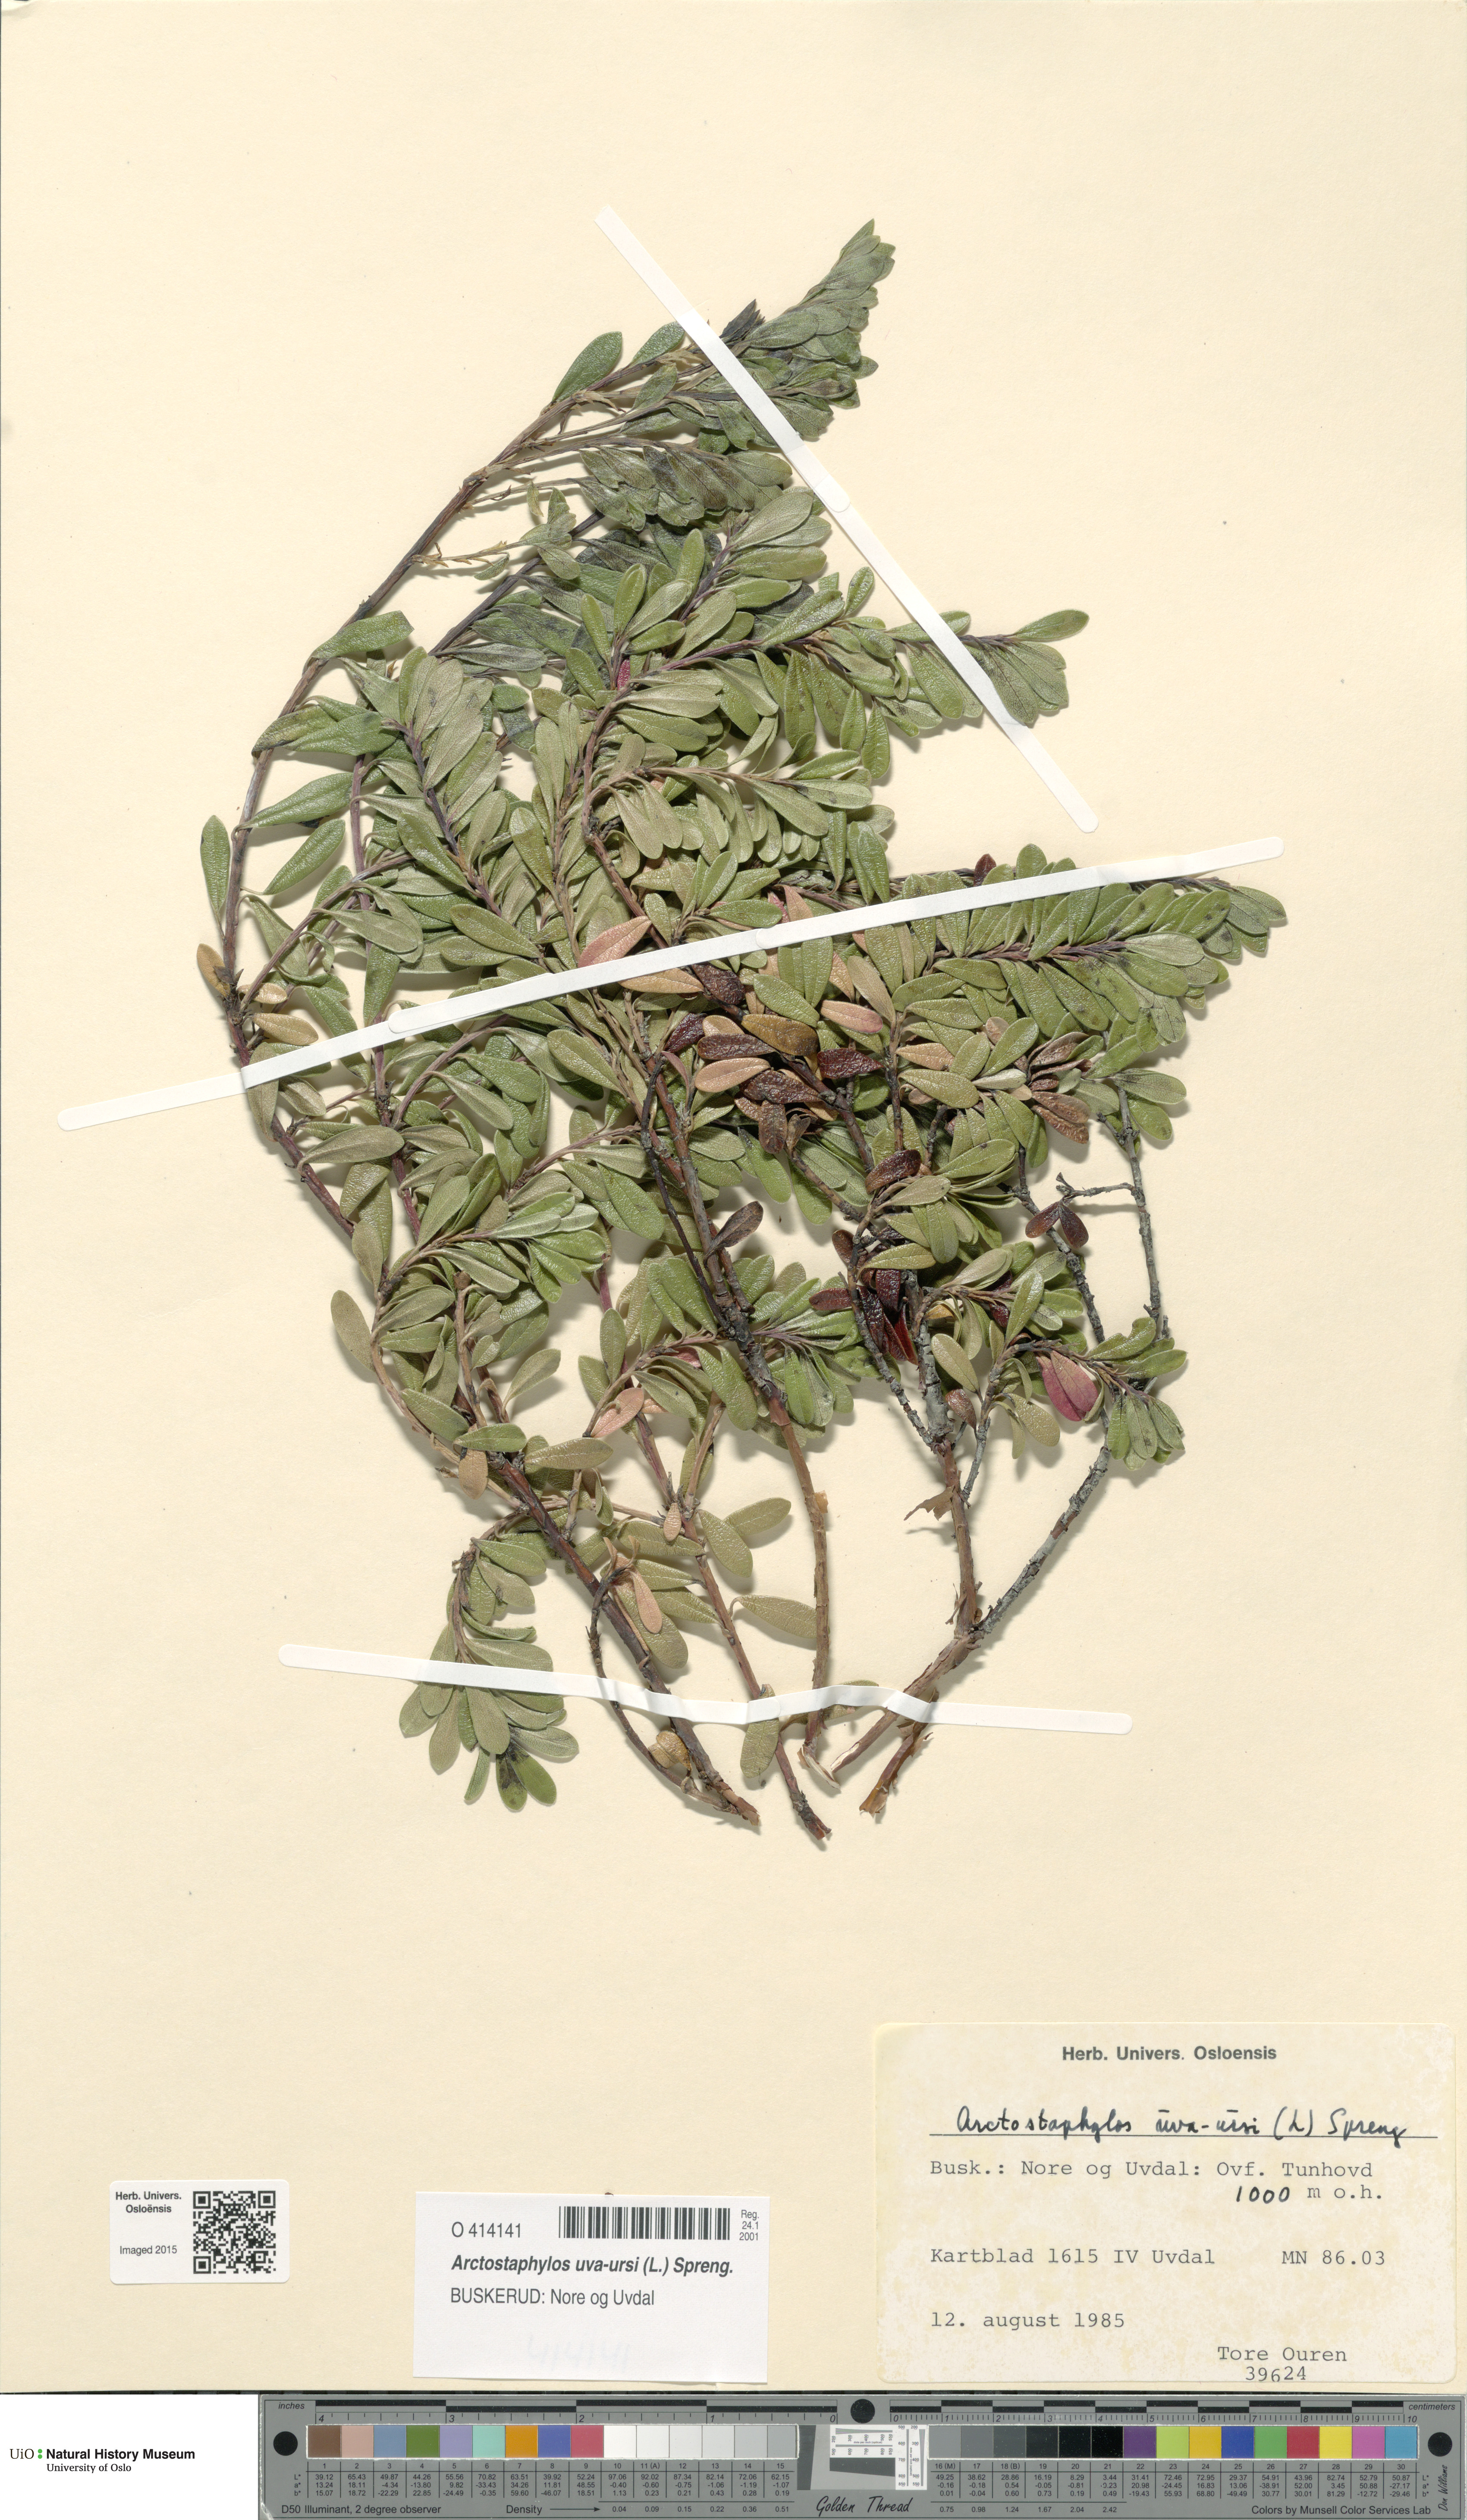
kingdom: Plantae
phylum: Tracheophyta
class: Magnoliopsida
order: Ericales
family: Ericaceae
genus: Arctostaphylos
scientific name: Arctostaphylos uva-ursi
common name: Bearberry
